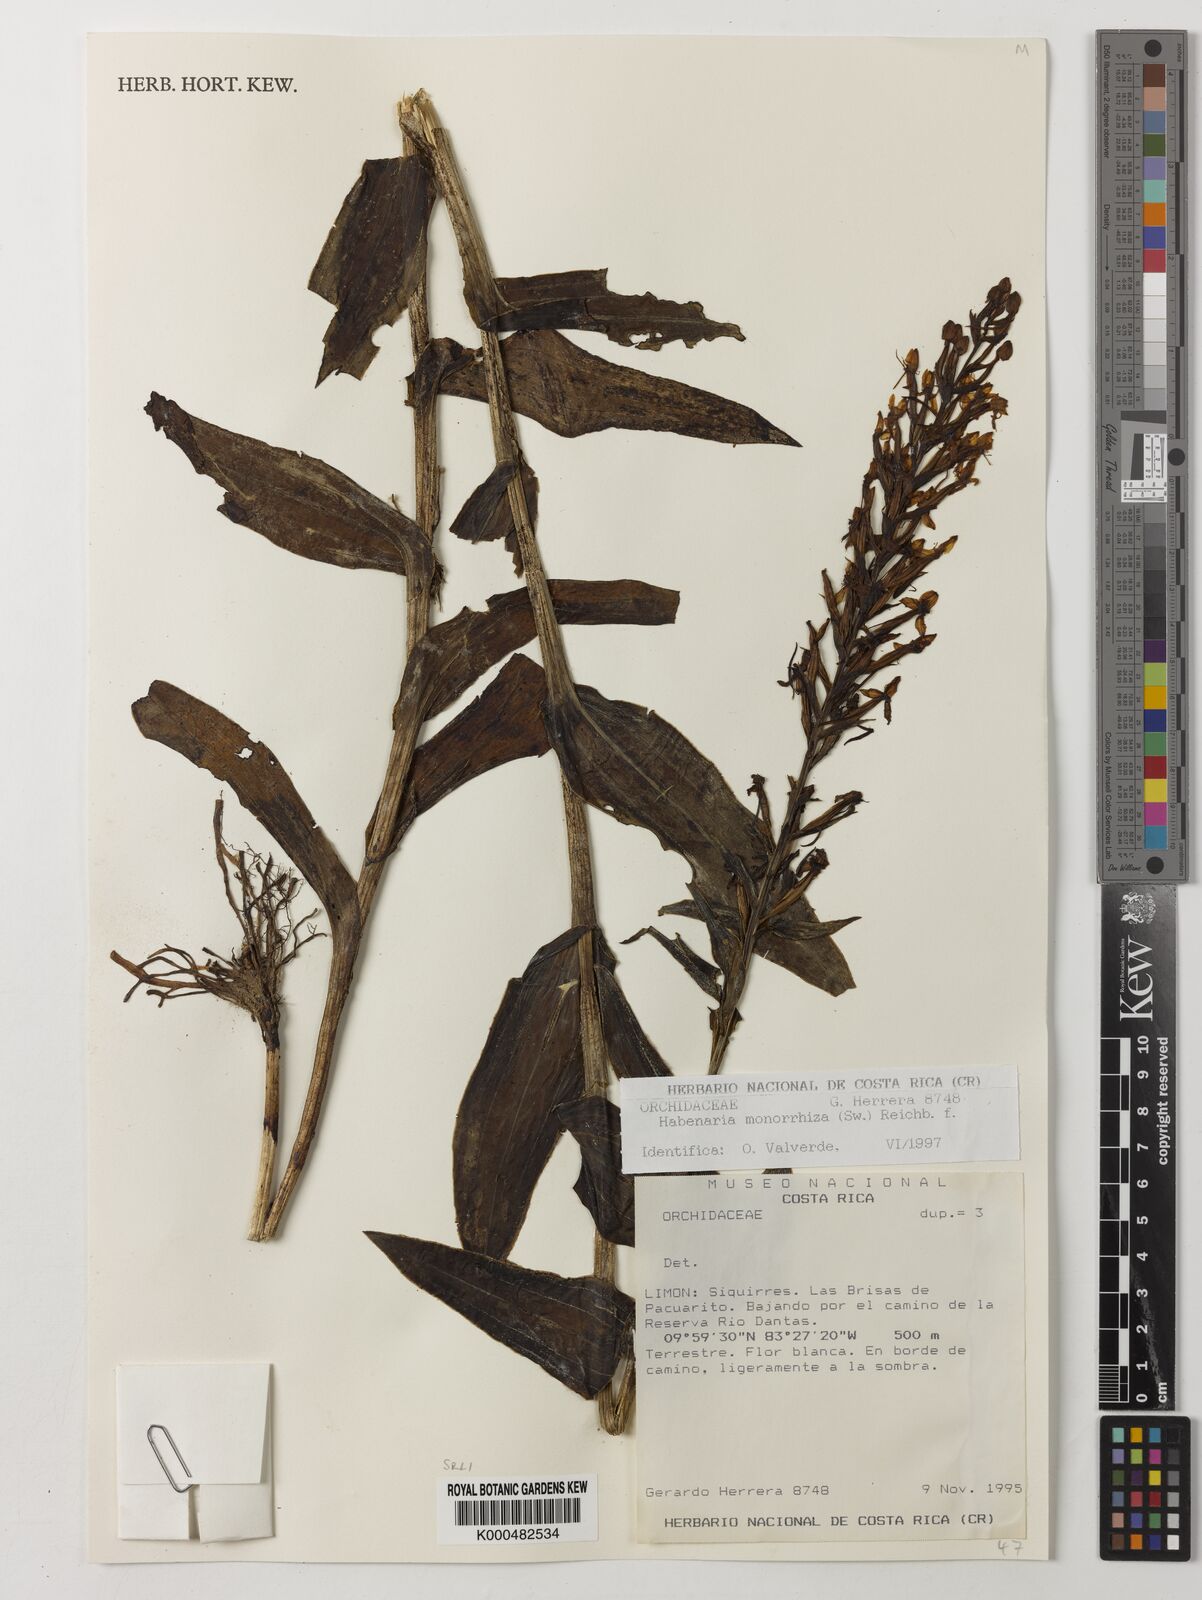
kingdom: Plantae
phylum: Tracheophyta
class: Liliopsida
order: Asparagales
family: Orchidaceae
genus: Habenaria
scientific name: Habenaria monorrhiza
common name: Tropical bog orchid
